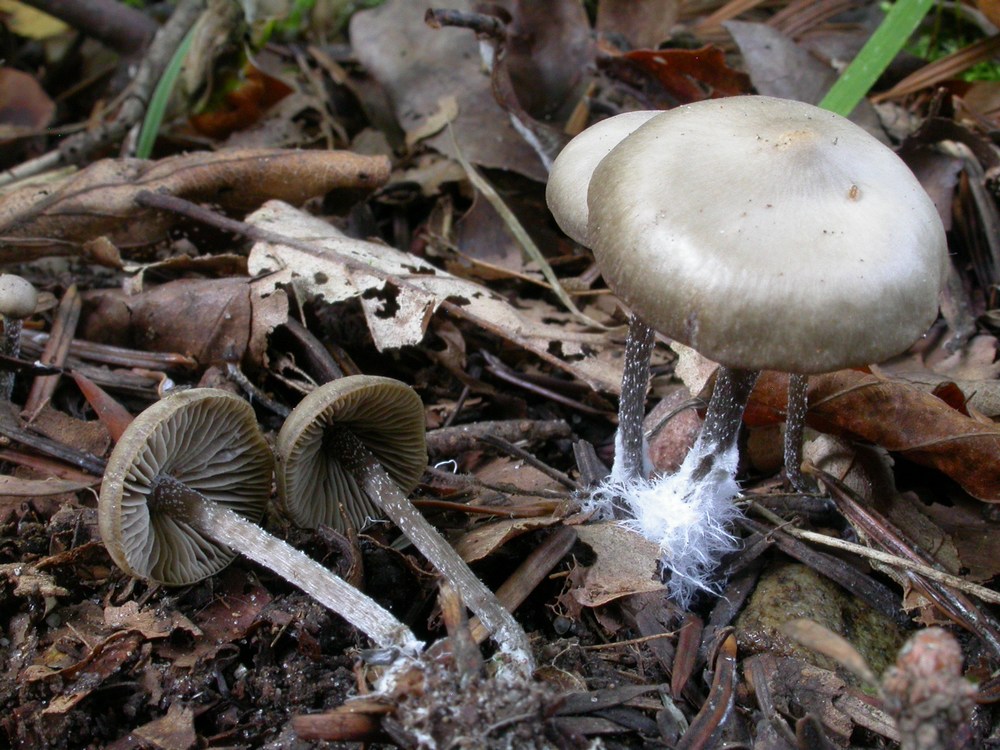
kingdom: Fungi
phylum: Basidiomycota
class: Agaricomycetes
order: Agaricales
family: Lyophyllaceae
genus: Myochromella
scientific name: Myochromella boudieri
